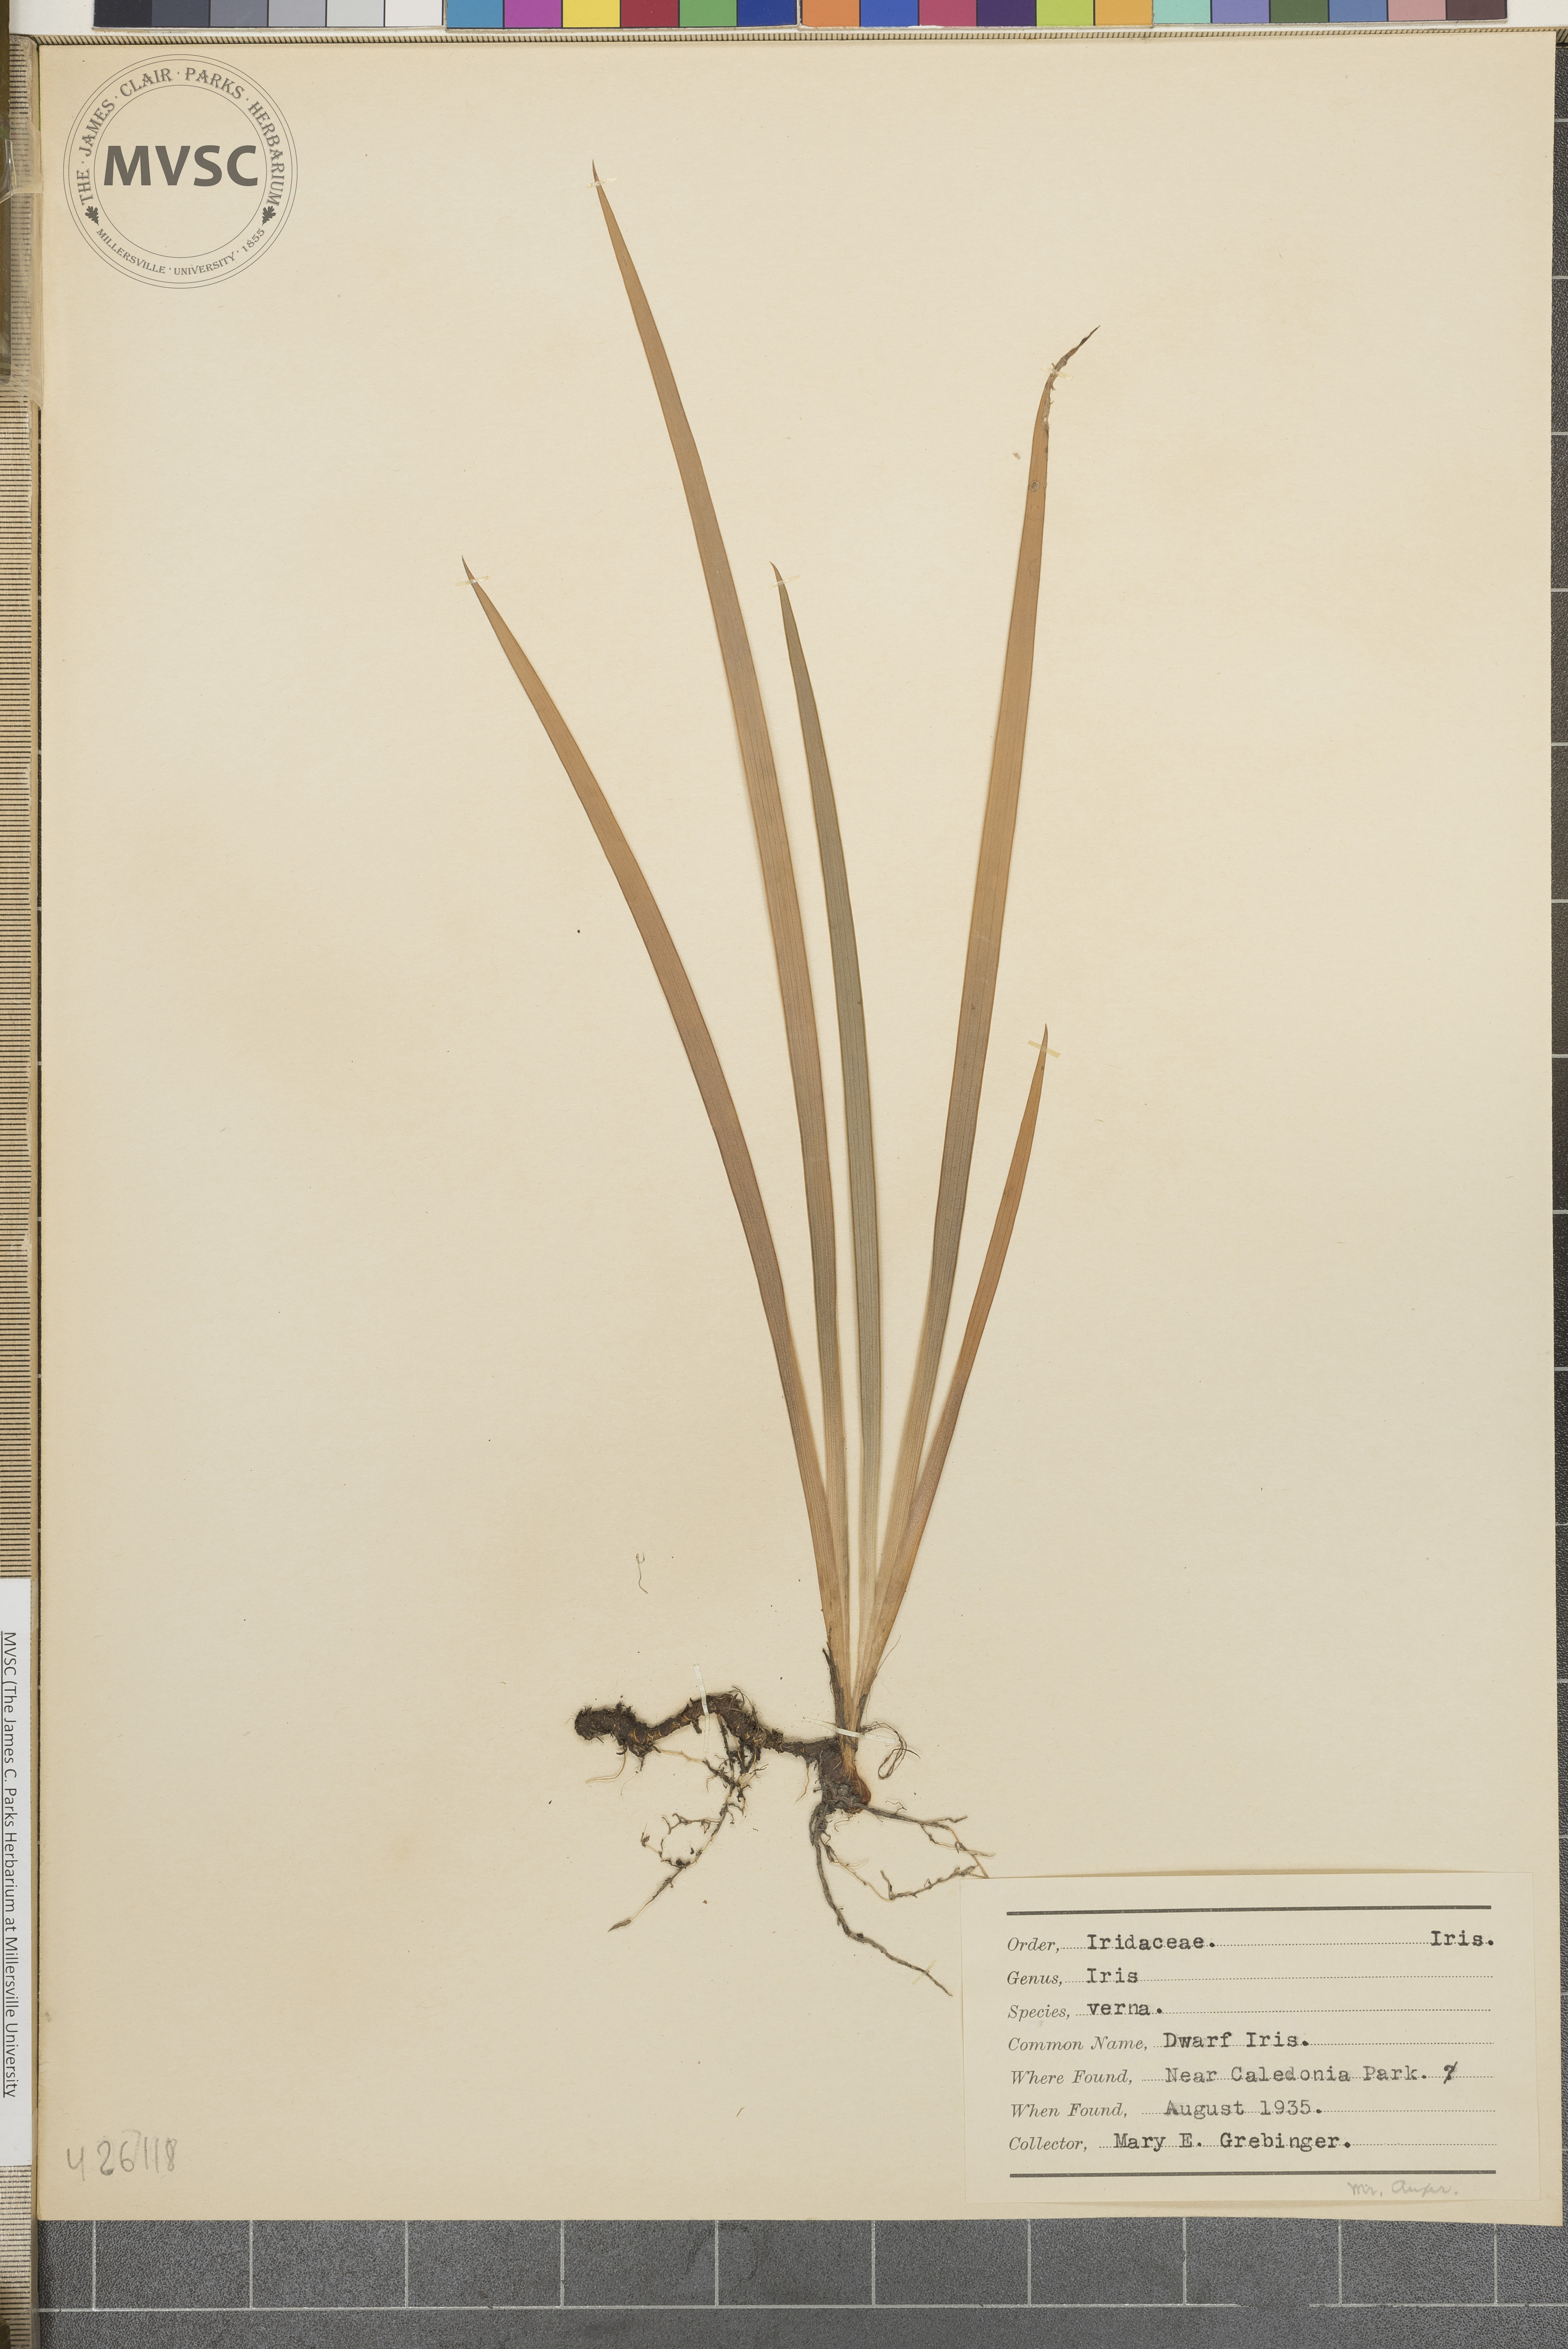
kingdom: Plantae
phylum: Tracheophyta
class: Liliopsida
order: Asparagales
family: Iridaceae
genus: Iris
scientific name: Iris verna
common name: Dwarf iris
